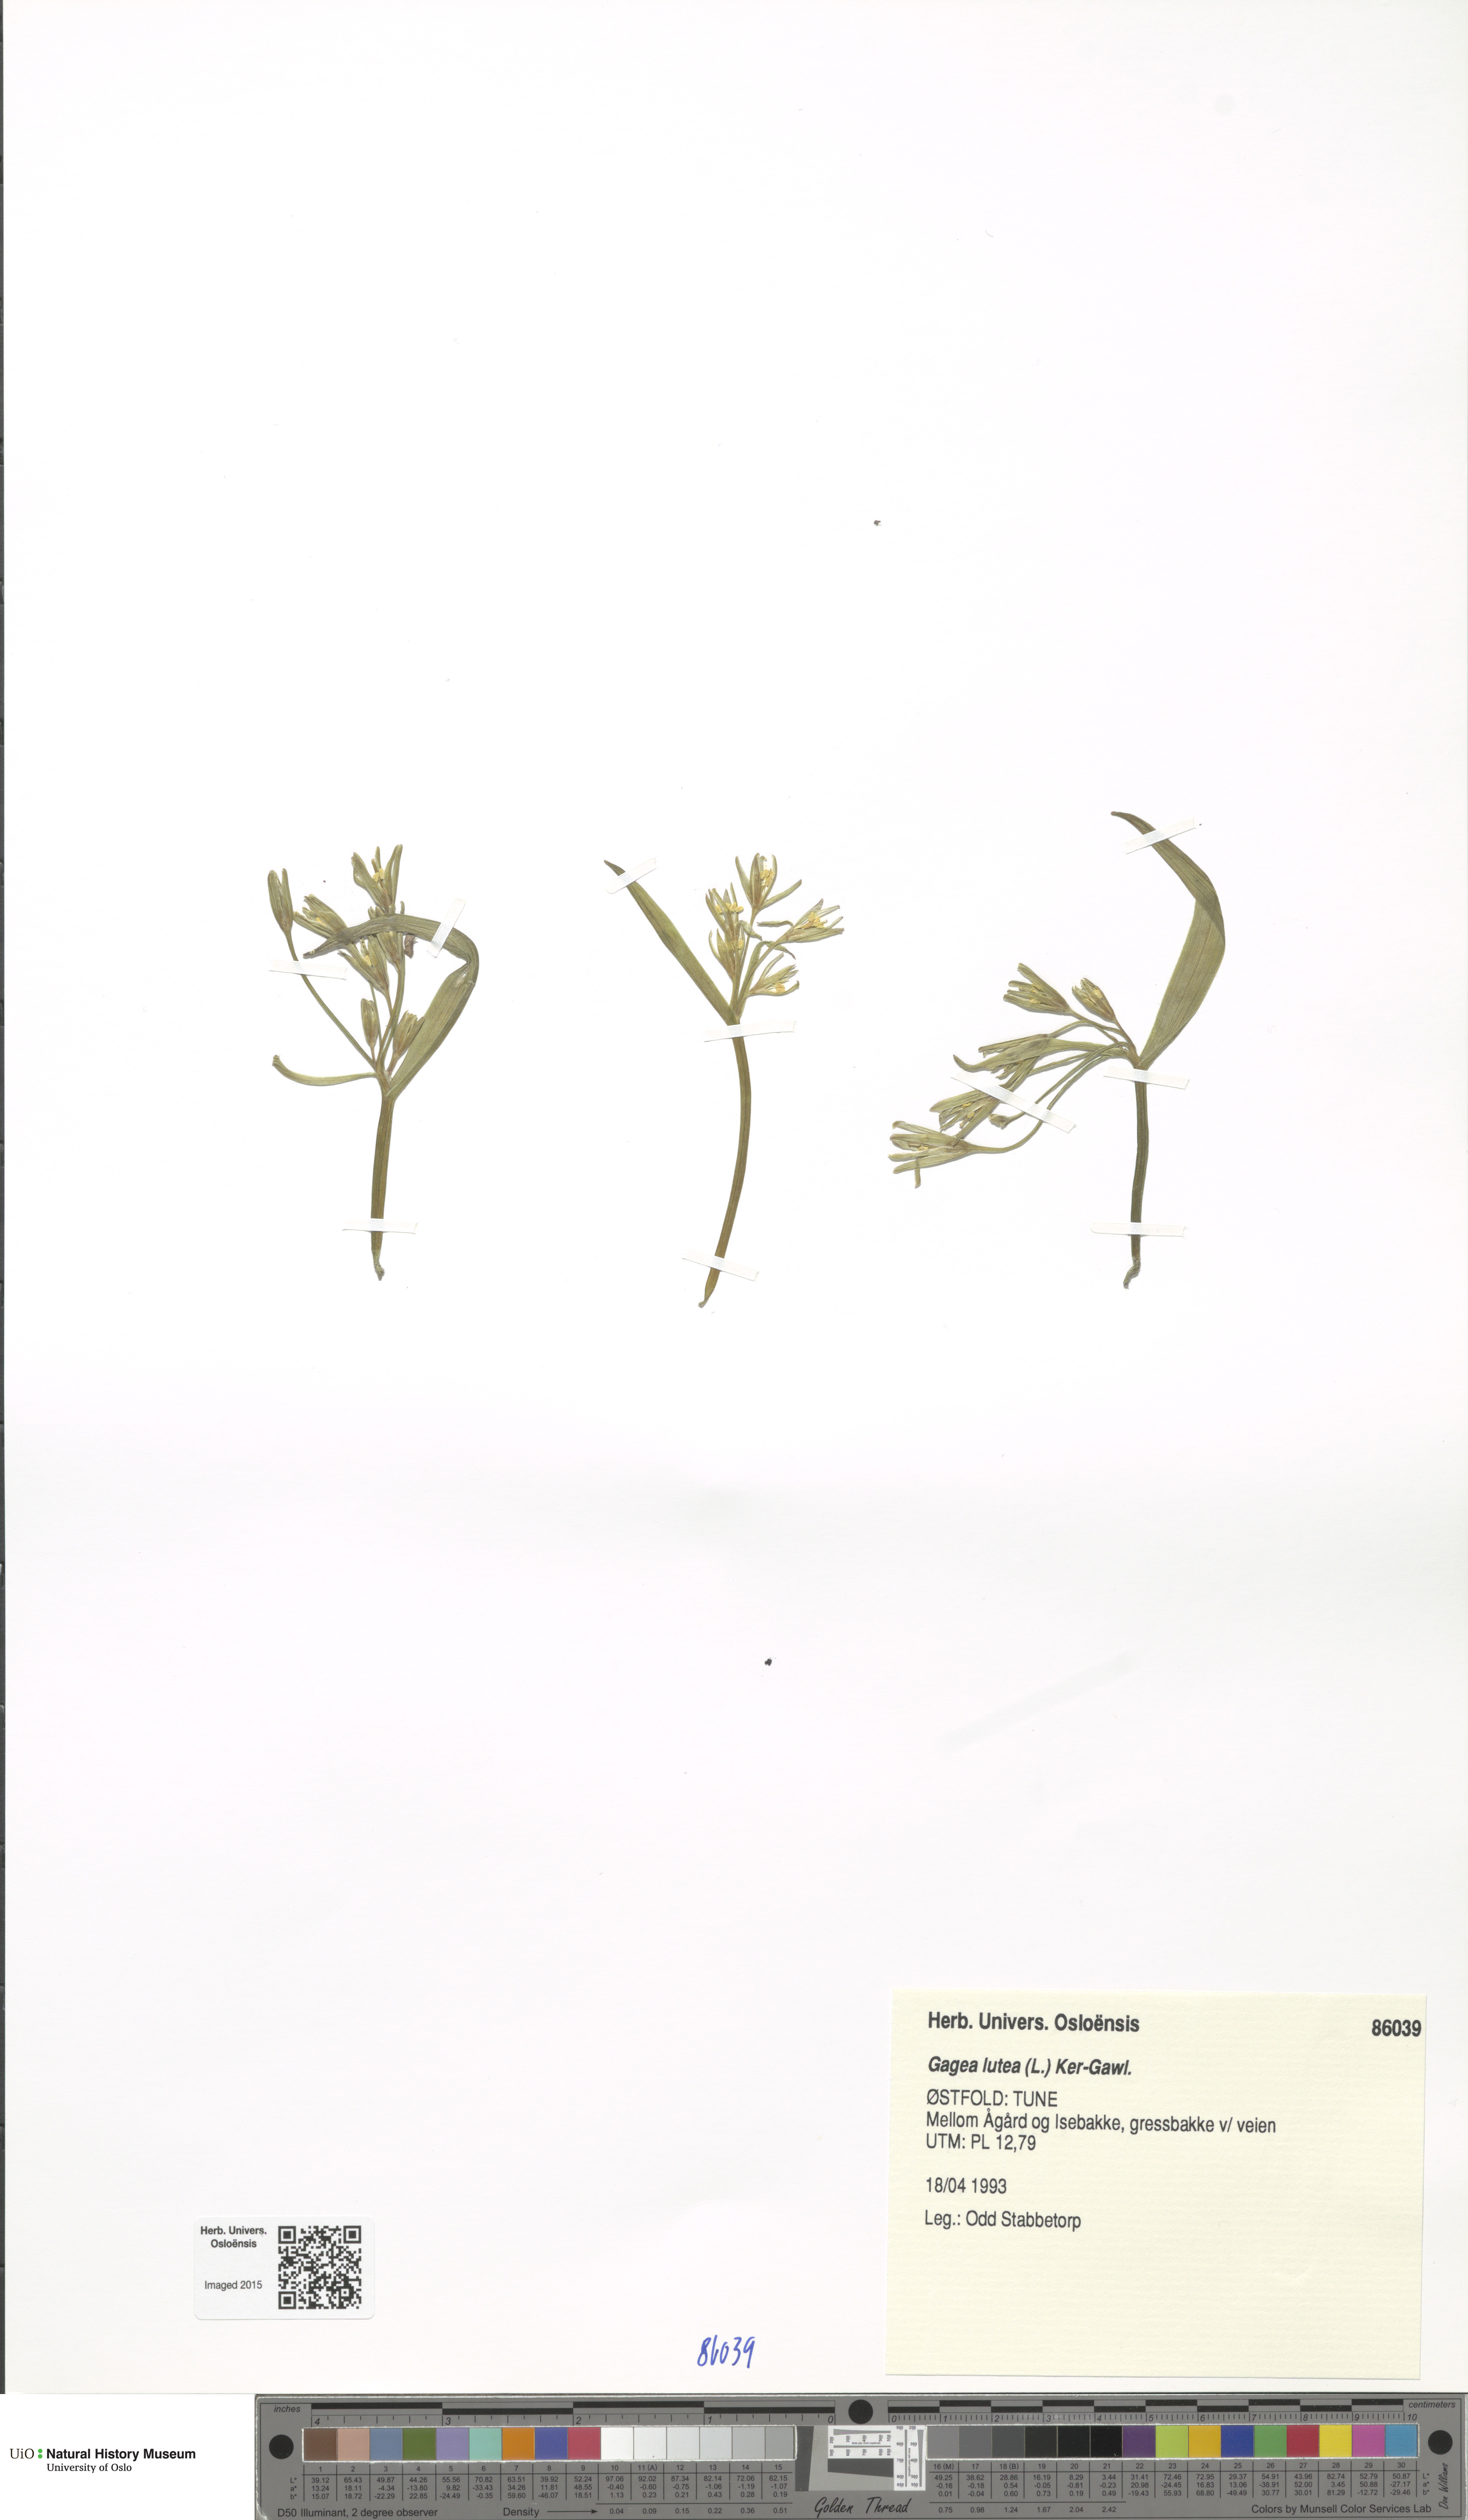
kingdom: Plantae
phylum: Tracheophyta
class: Liliopsida
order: Liliales
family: Liliaceae
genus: Gagea
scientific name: Gagea lutea
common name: Yellow star-of-bethlehem
